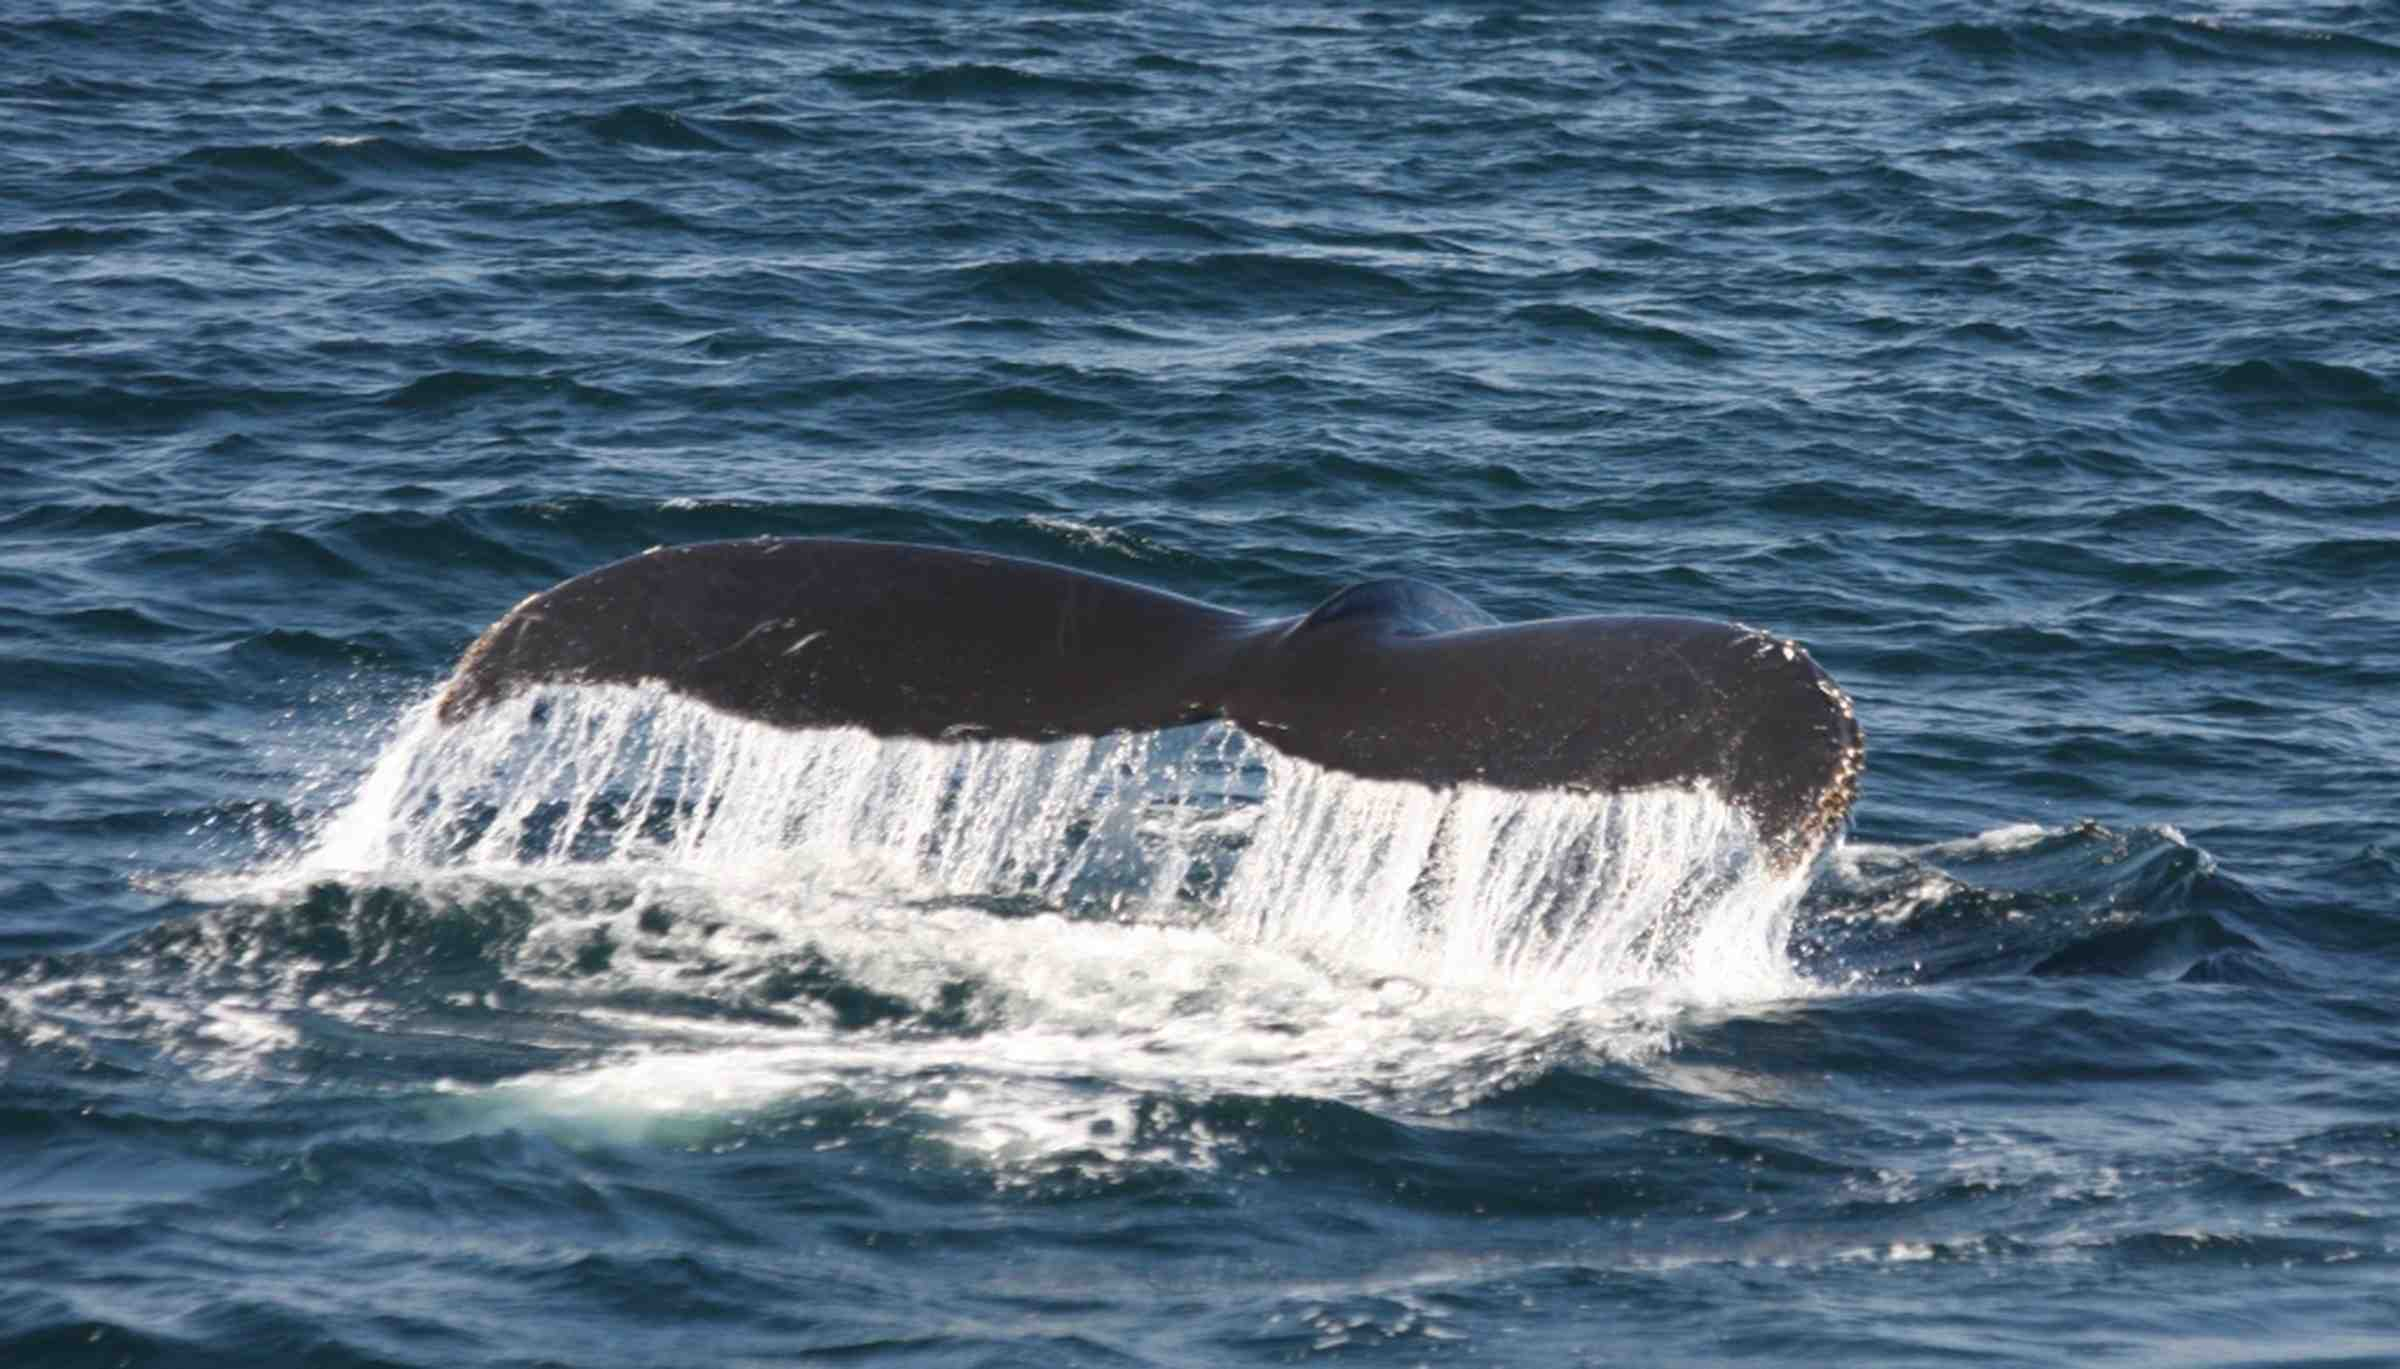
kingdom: Animalia
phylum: Chordata
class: Mammalia
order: Cetacea
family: Balaenopteridae
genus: Megaptera
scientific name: Megaptera novaeangliae
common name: Humpback whale
